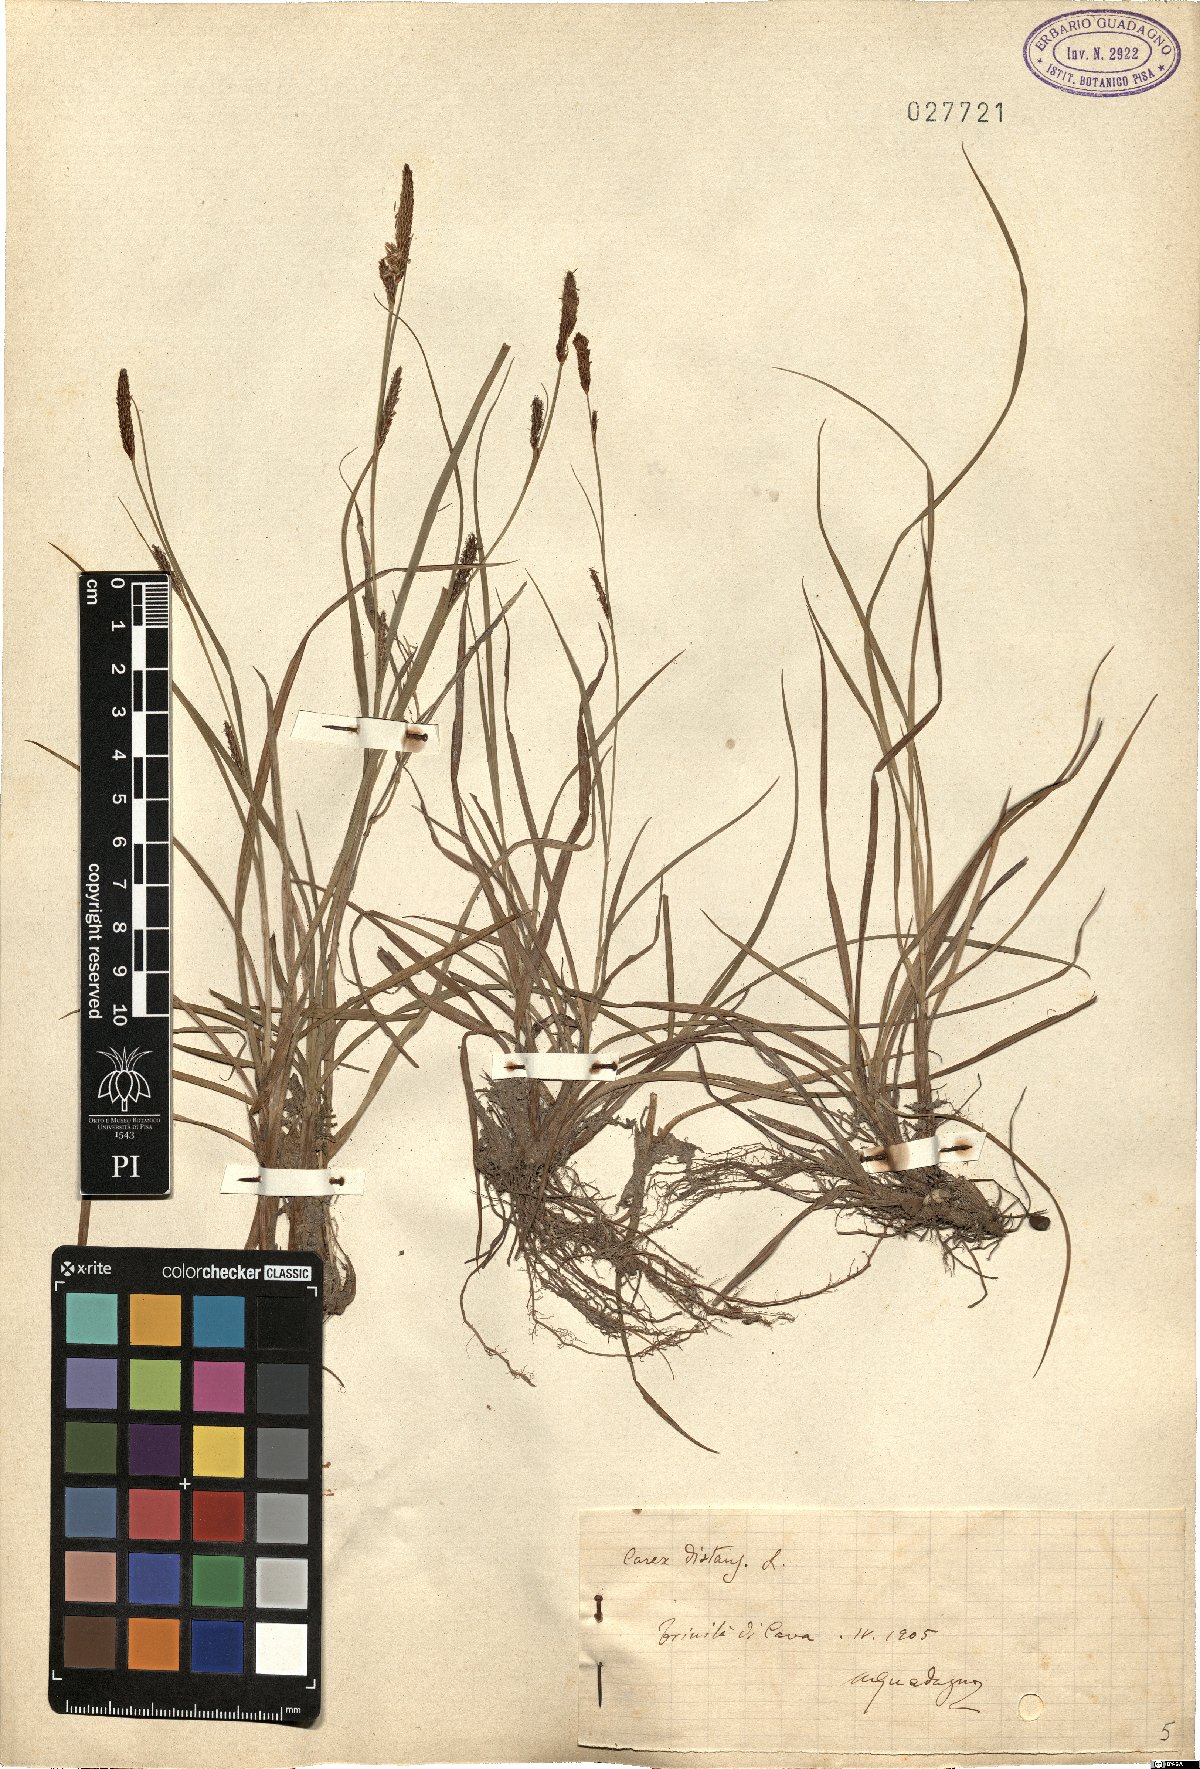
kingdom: Plantae
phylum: Tracheophyta
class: Liliopsida
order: Poales
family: Cyperaceae
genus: Carex
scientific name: Carex distans
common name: Distant sedge
